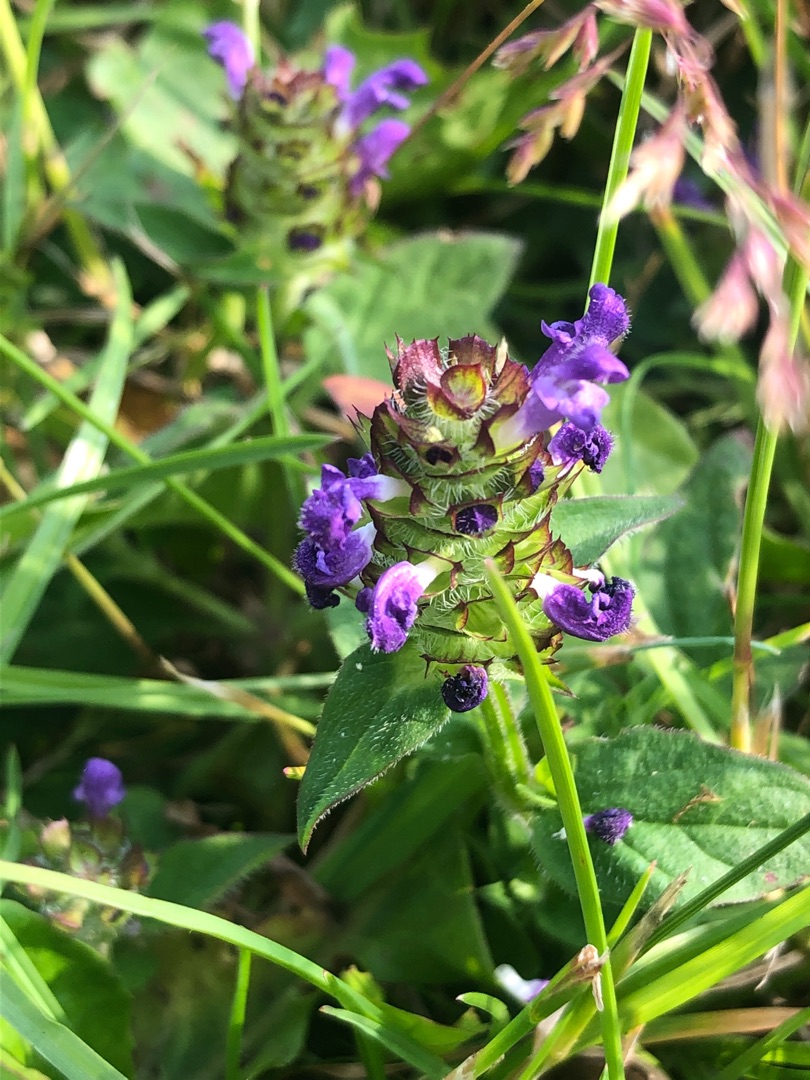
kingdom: Plantae
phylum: Tracheophyta
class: Magnoliopsida
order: Lamiales
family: Lamiaceae
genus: Prunella
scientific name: Prunella vulgaris
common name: Almindelig brunelle
